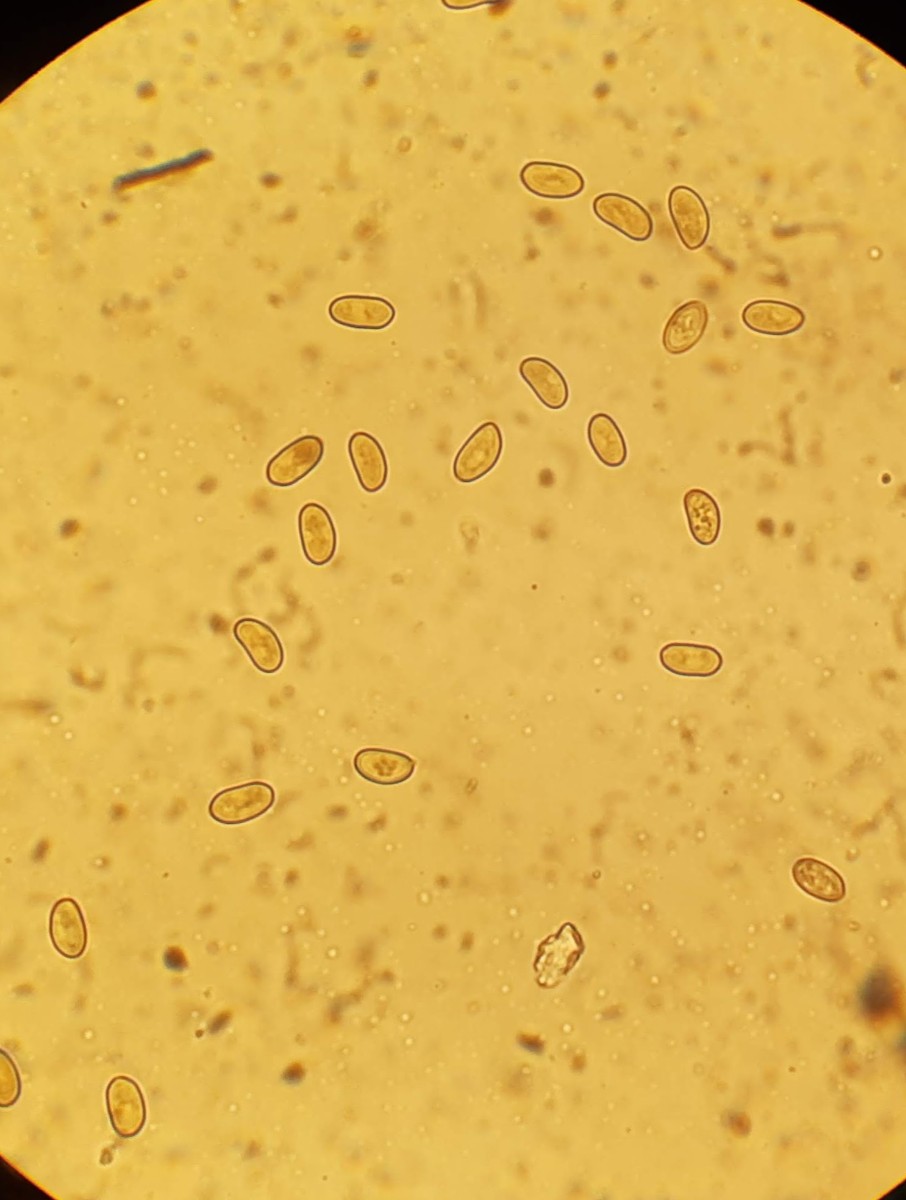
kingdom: Fungi
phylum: Basidiomycota
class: Agaricomycetes
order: Agaricales
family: Tubariaceae
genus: Flammulaster
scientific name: Flammulaster limulatus
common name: gylden grynskælhat
